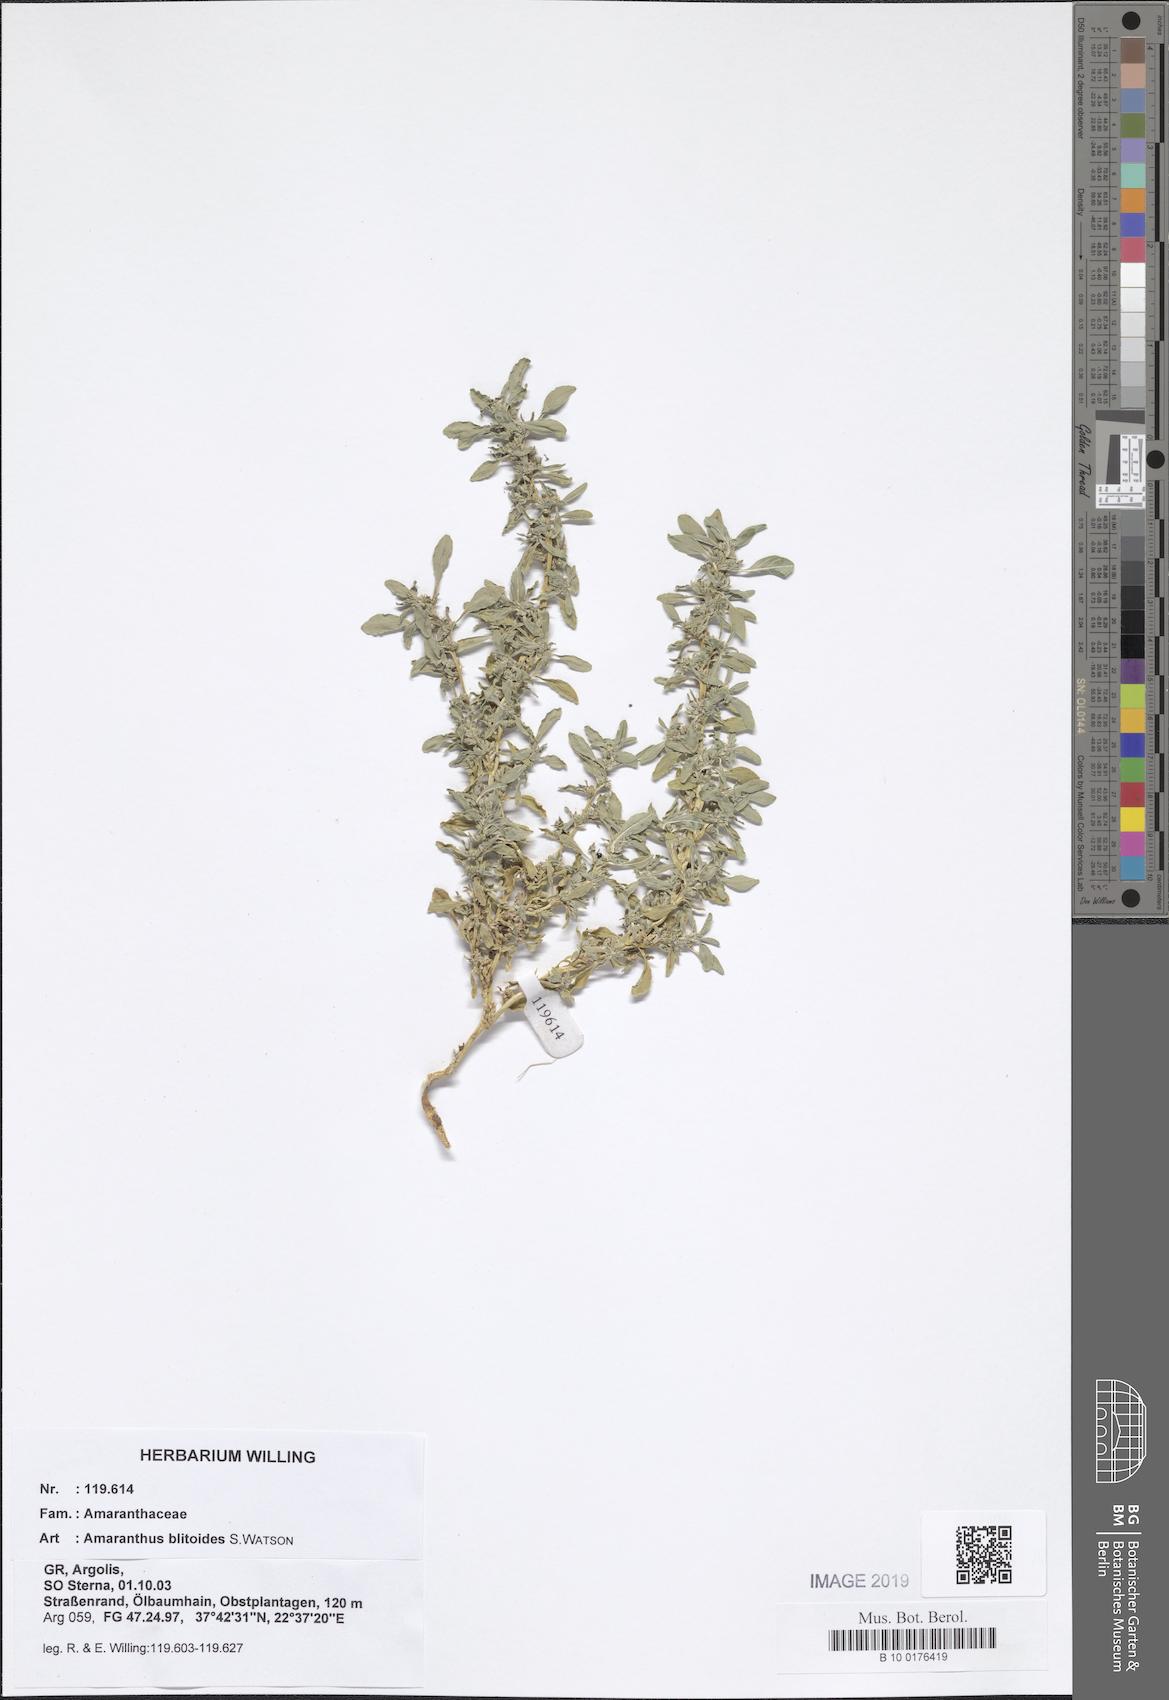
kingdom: Plantae
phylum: Tracheophyta
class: Magnoliopsida
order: Caryophyllales
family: Amaranthaceae
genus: Amaranthus
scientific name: Amaranthus blitoides
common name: Prostrate pigweed
